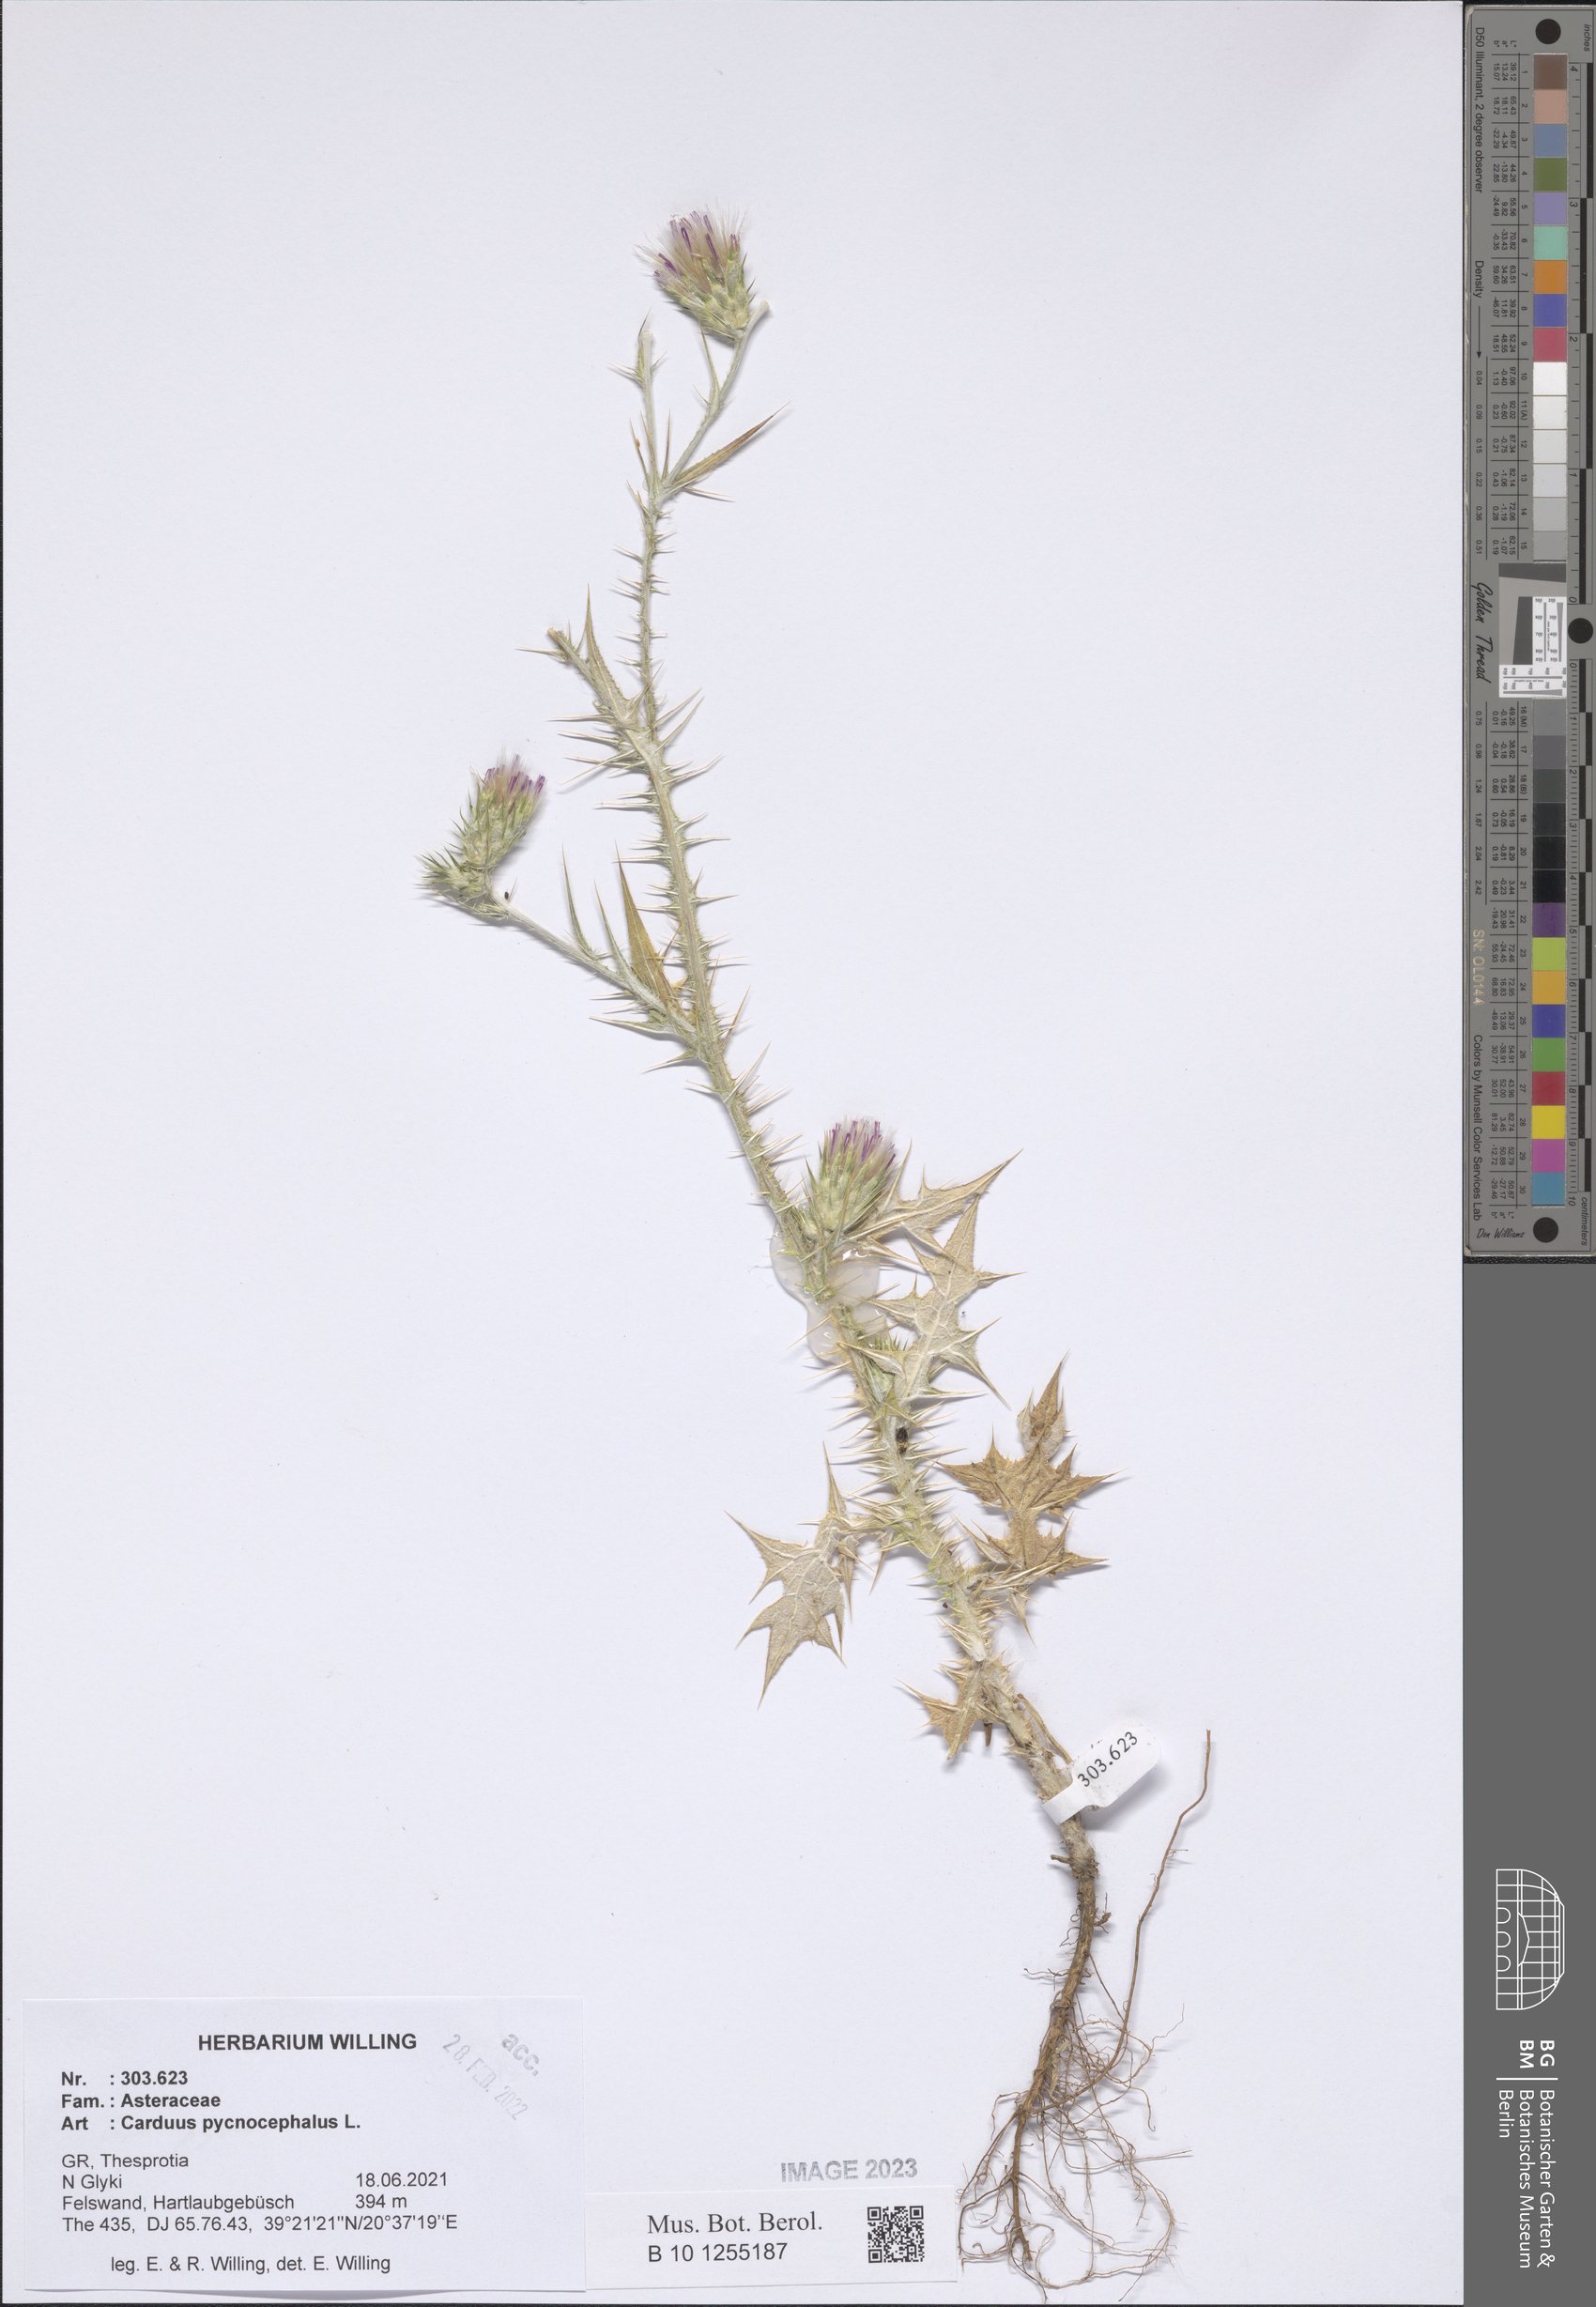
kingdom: Plantae
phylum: Tracheophyta
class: Magnoliopsida
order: Asterales
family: Asteraceae
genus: Carduus
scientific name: Carduus pycnocephalus
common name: Plymouth thistle
